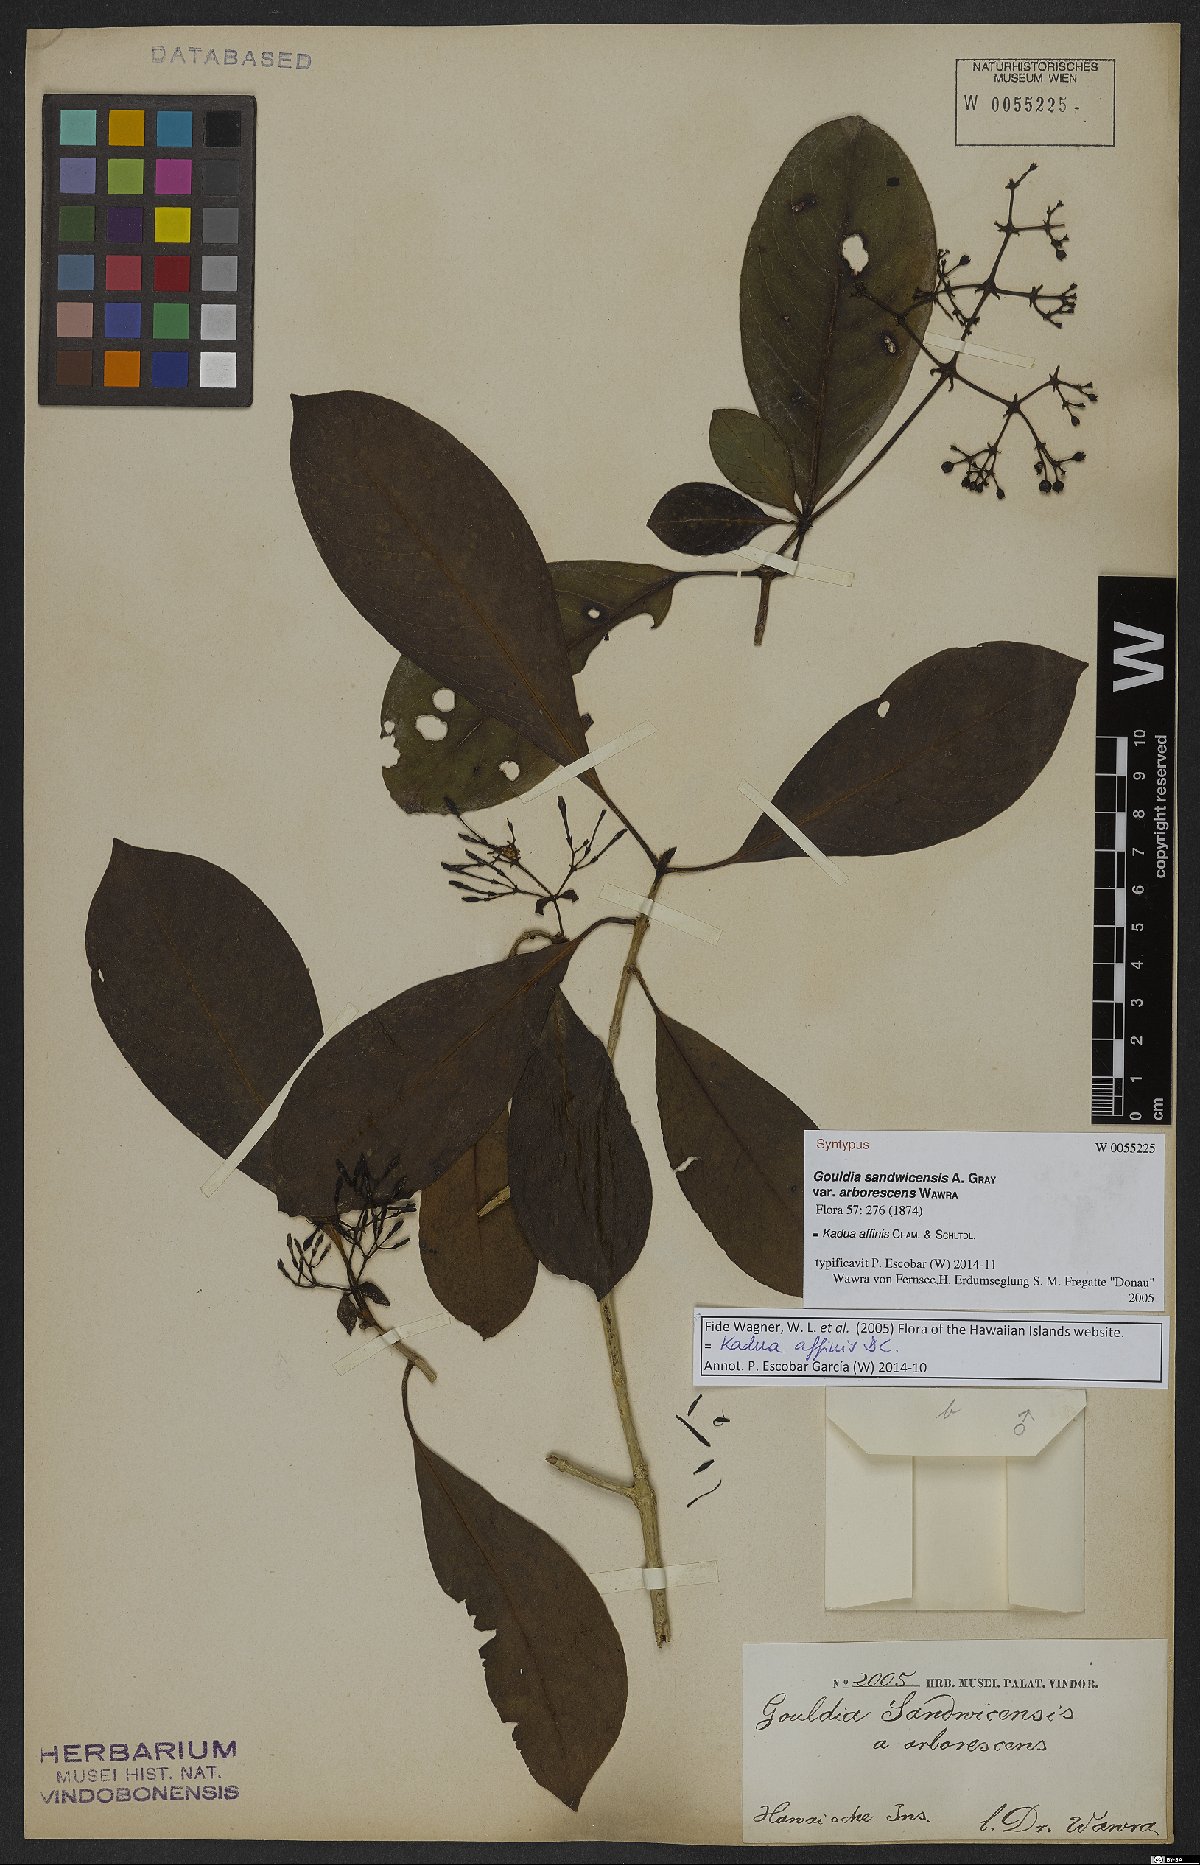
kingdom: Plantae
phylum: Tracheophyta
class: Magnoliopsida
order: Gentianales
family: Rubiaceae
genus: Kadua
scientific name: Kadua affinis
